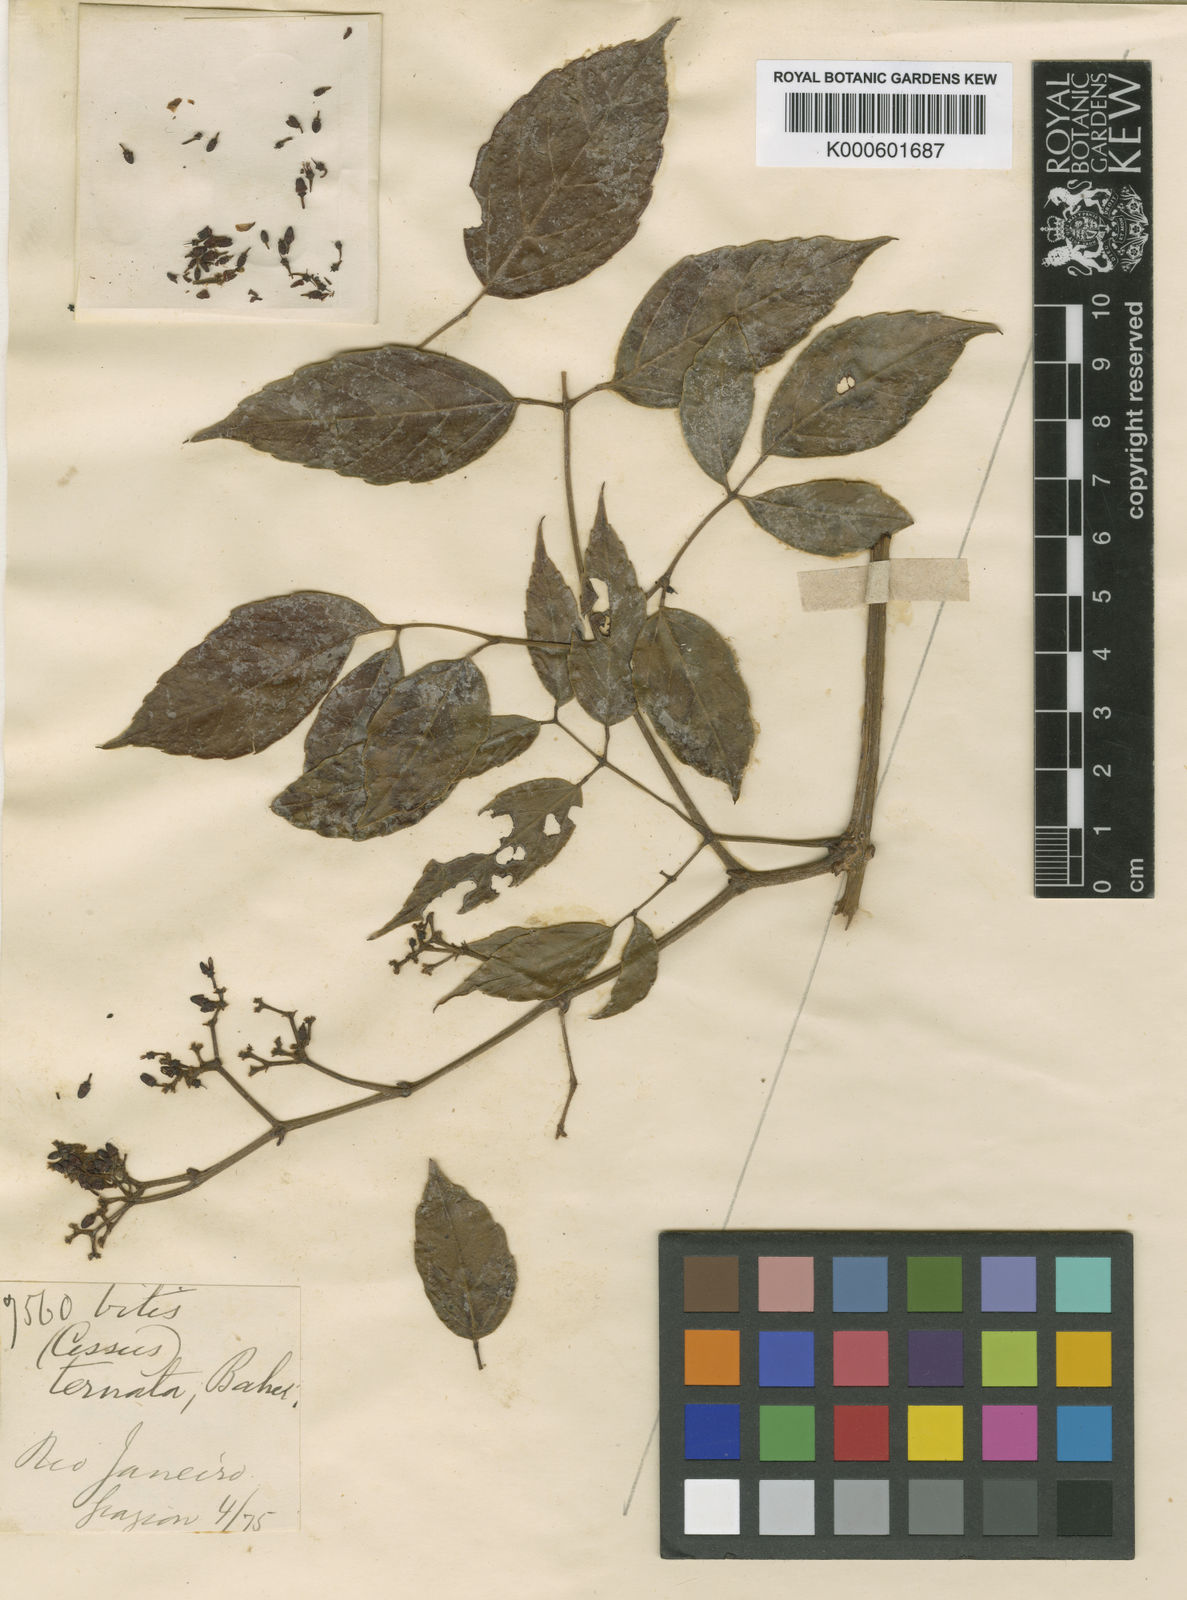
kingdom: Plantae
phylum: Tracheophyta
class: Magnoliopsida
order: Vitales
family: Vitaceae
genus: Cissus
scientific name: Cissus paullinifolia
